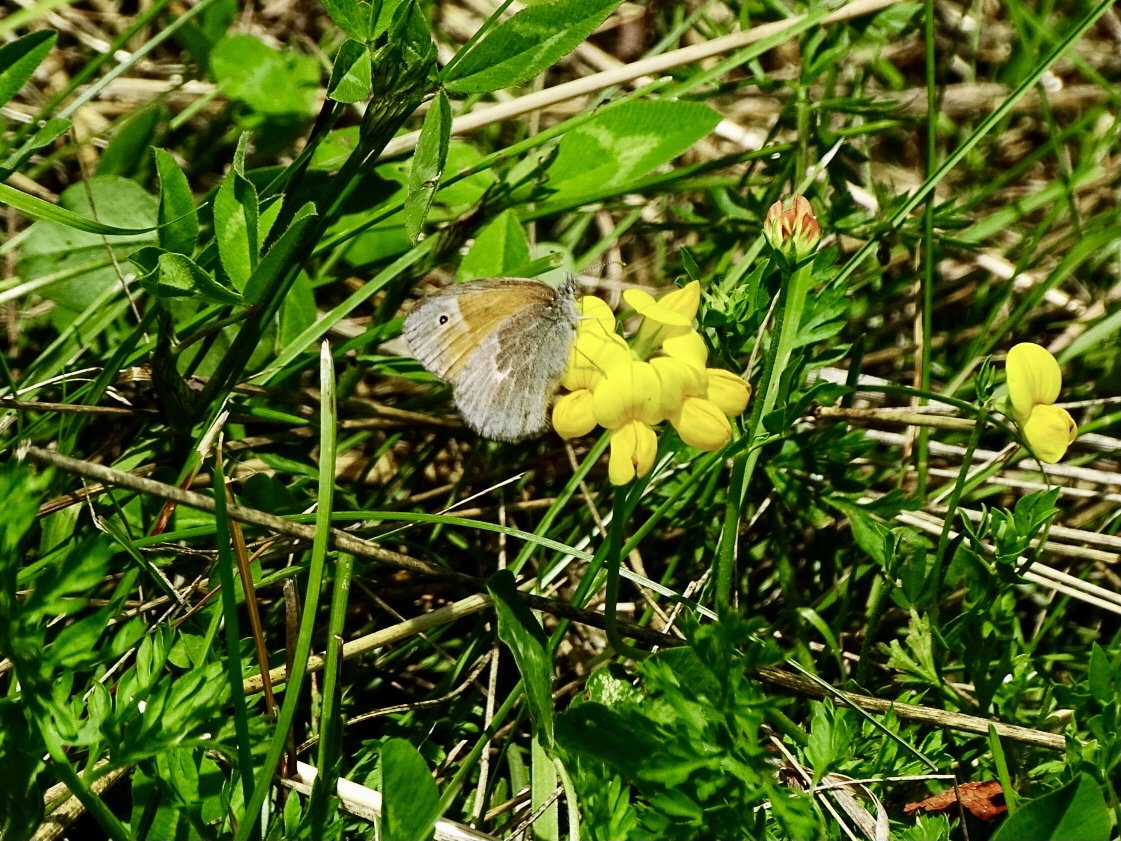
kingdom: Animalia
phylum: Arthropoda
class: Insecta
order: Lepidoptera
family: Nymphalidae
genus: Coenonympha
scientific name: Coenonympha tullia
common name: Large Heath
